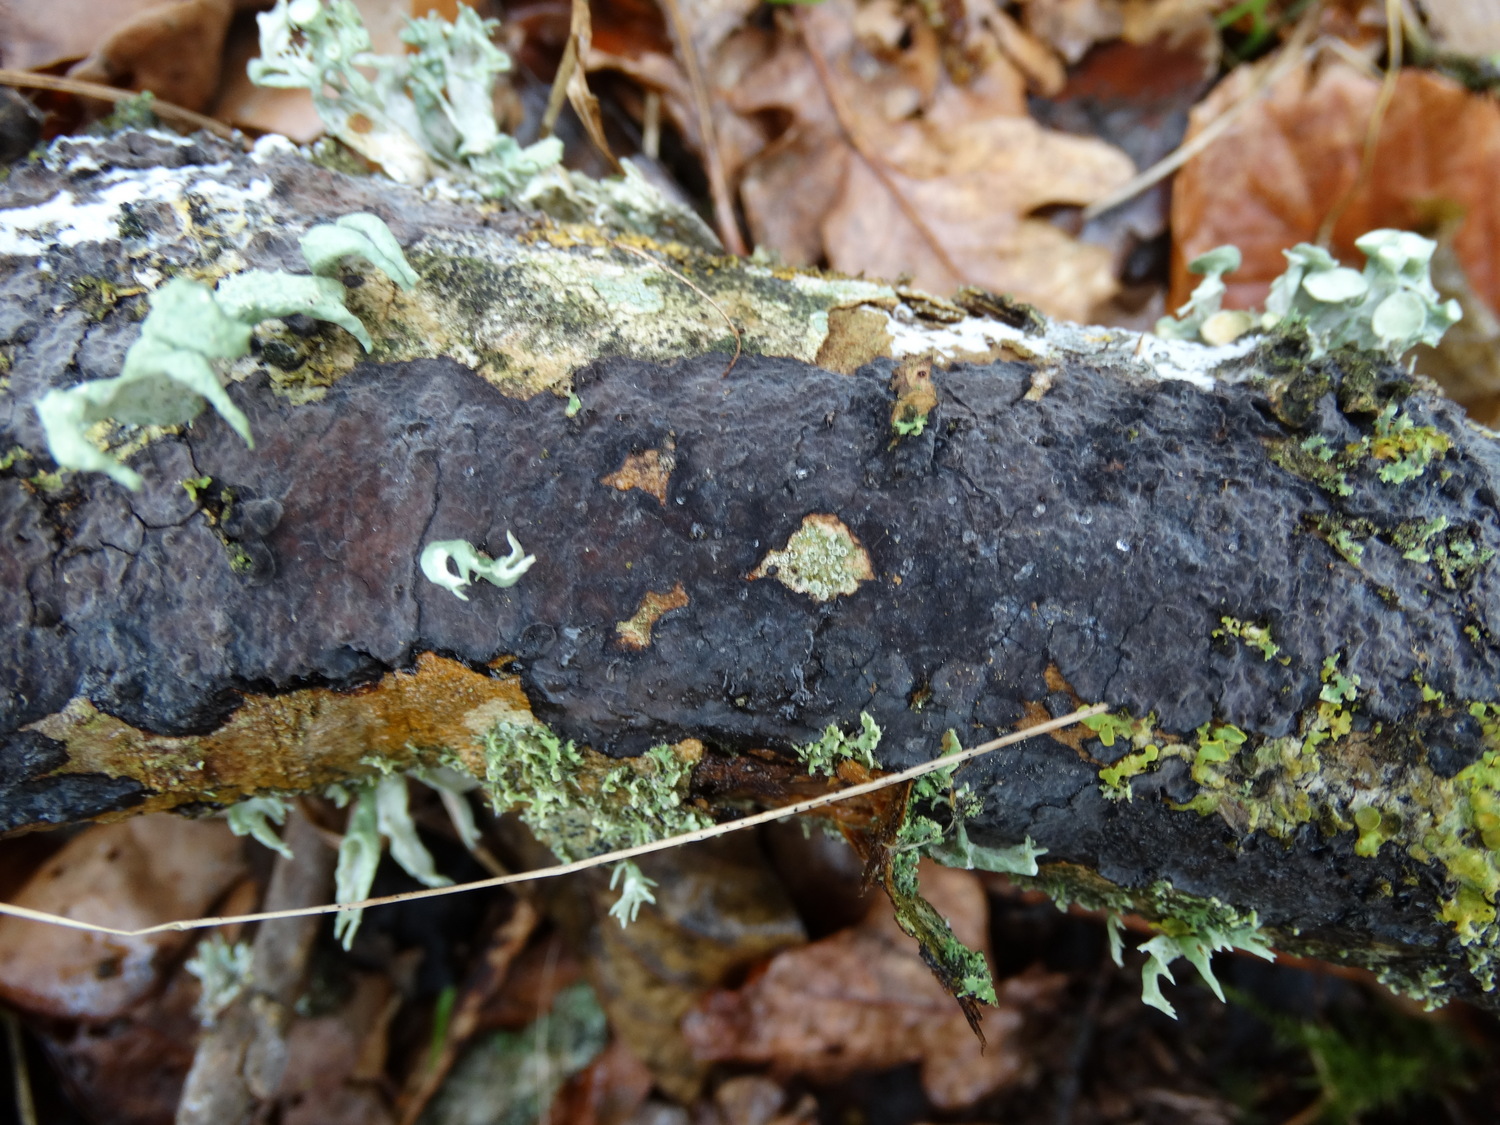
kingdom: Fungi
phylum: Basidiomycota
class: Agaricomycetes
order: Russulales
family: Peniophoraceae
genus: Peniophora
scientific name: Peniophora limitata
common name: mørkrandet voksskind
